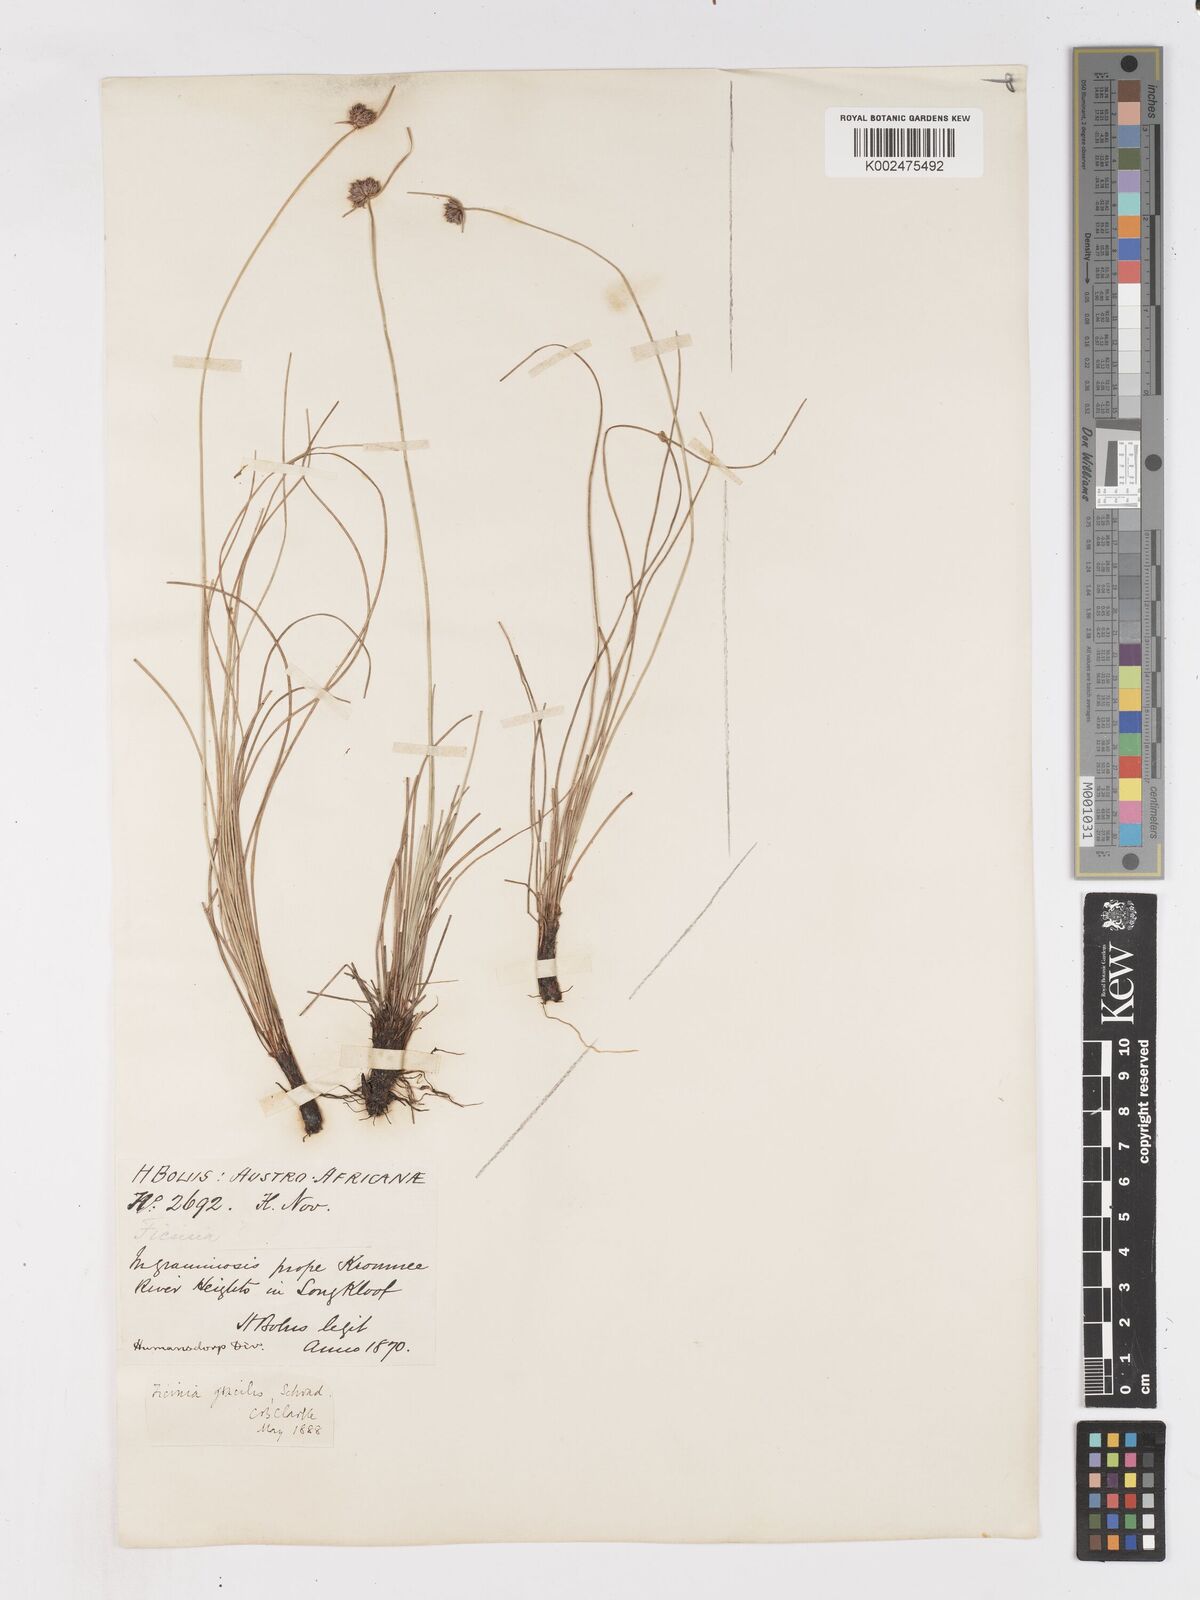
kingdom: Plantae
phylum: Tracheophyta
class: Liliopsida
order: Poales
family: Cyperaceae
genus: Ficinia
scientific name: Ficinia gracilis
